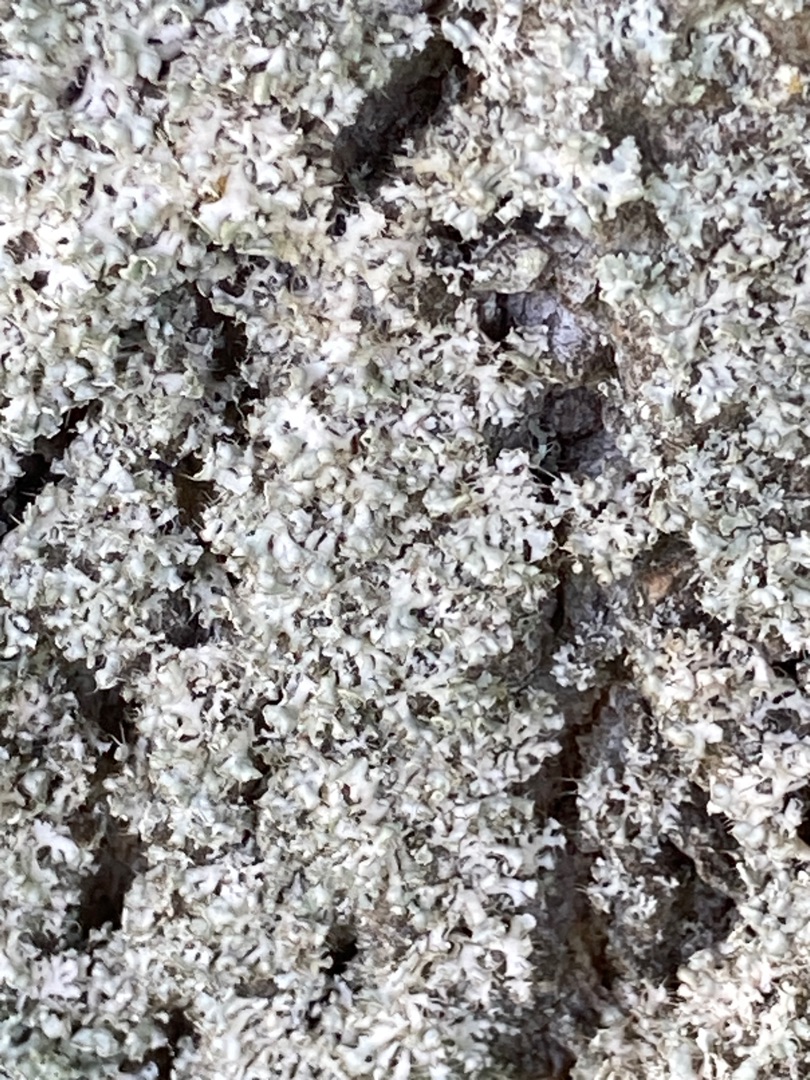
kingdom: Fungi
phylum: Ascomycota
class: Lecanoromycetes
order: Caliciales
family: Physciaceae
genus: Physcia
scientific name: Physcia adscendens
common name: Hætte-rosetlav
